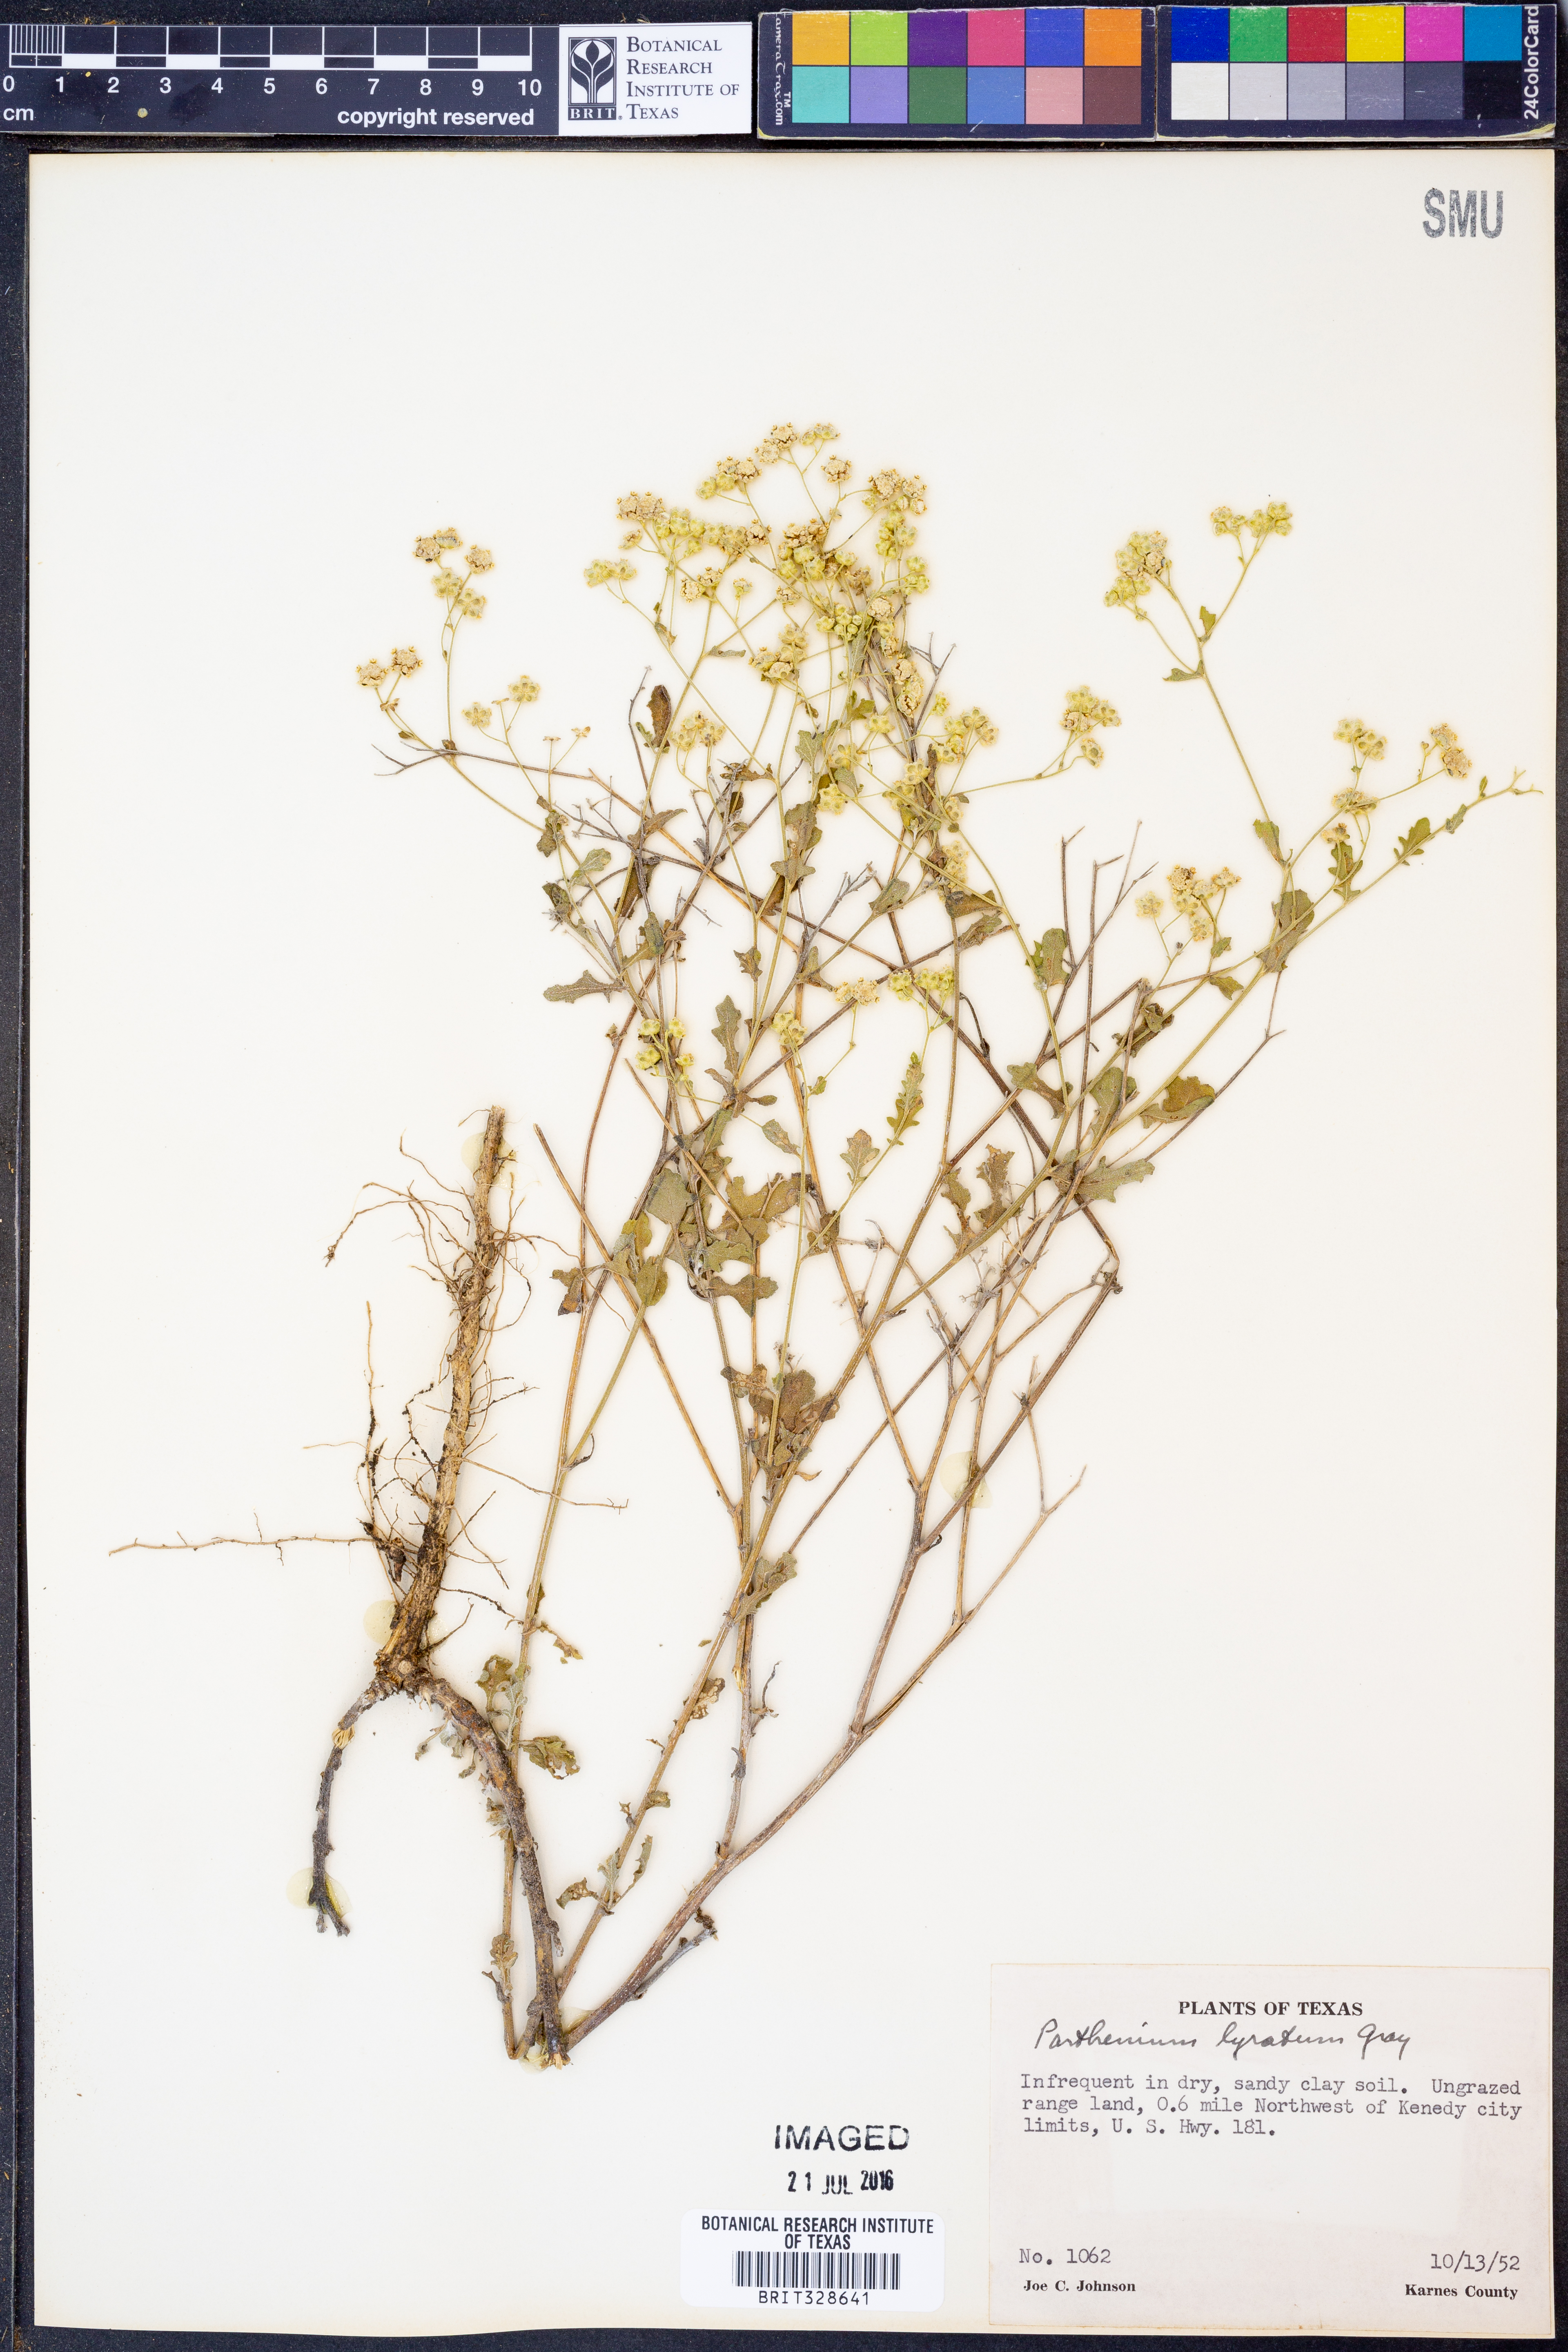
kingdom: Plantae
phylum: Tracheophyta
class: Magnoliopsida
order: Asterales
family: Asteraceae
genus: Parthenium
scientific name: Parthenium confertum
